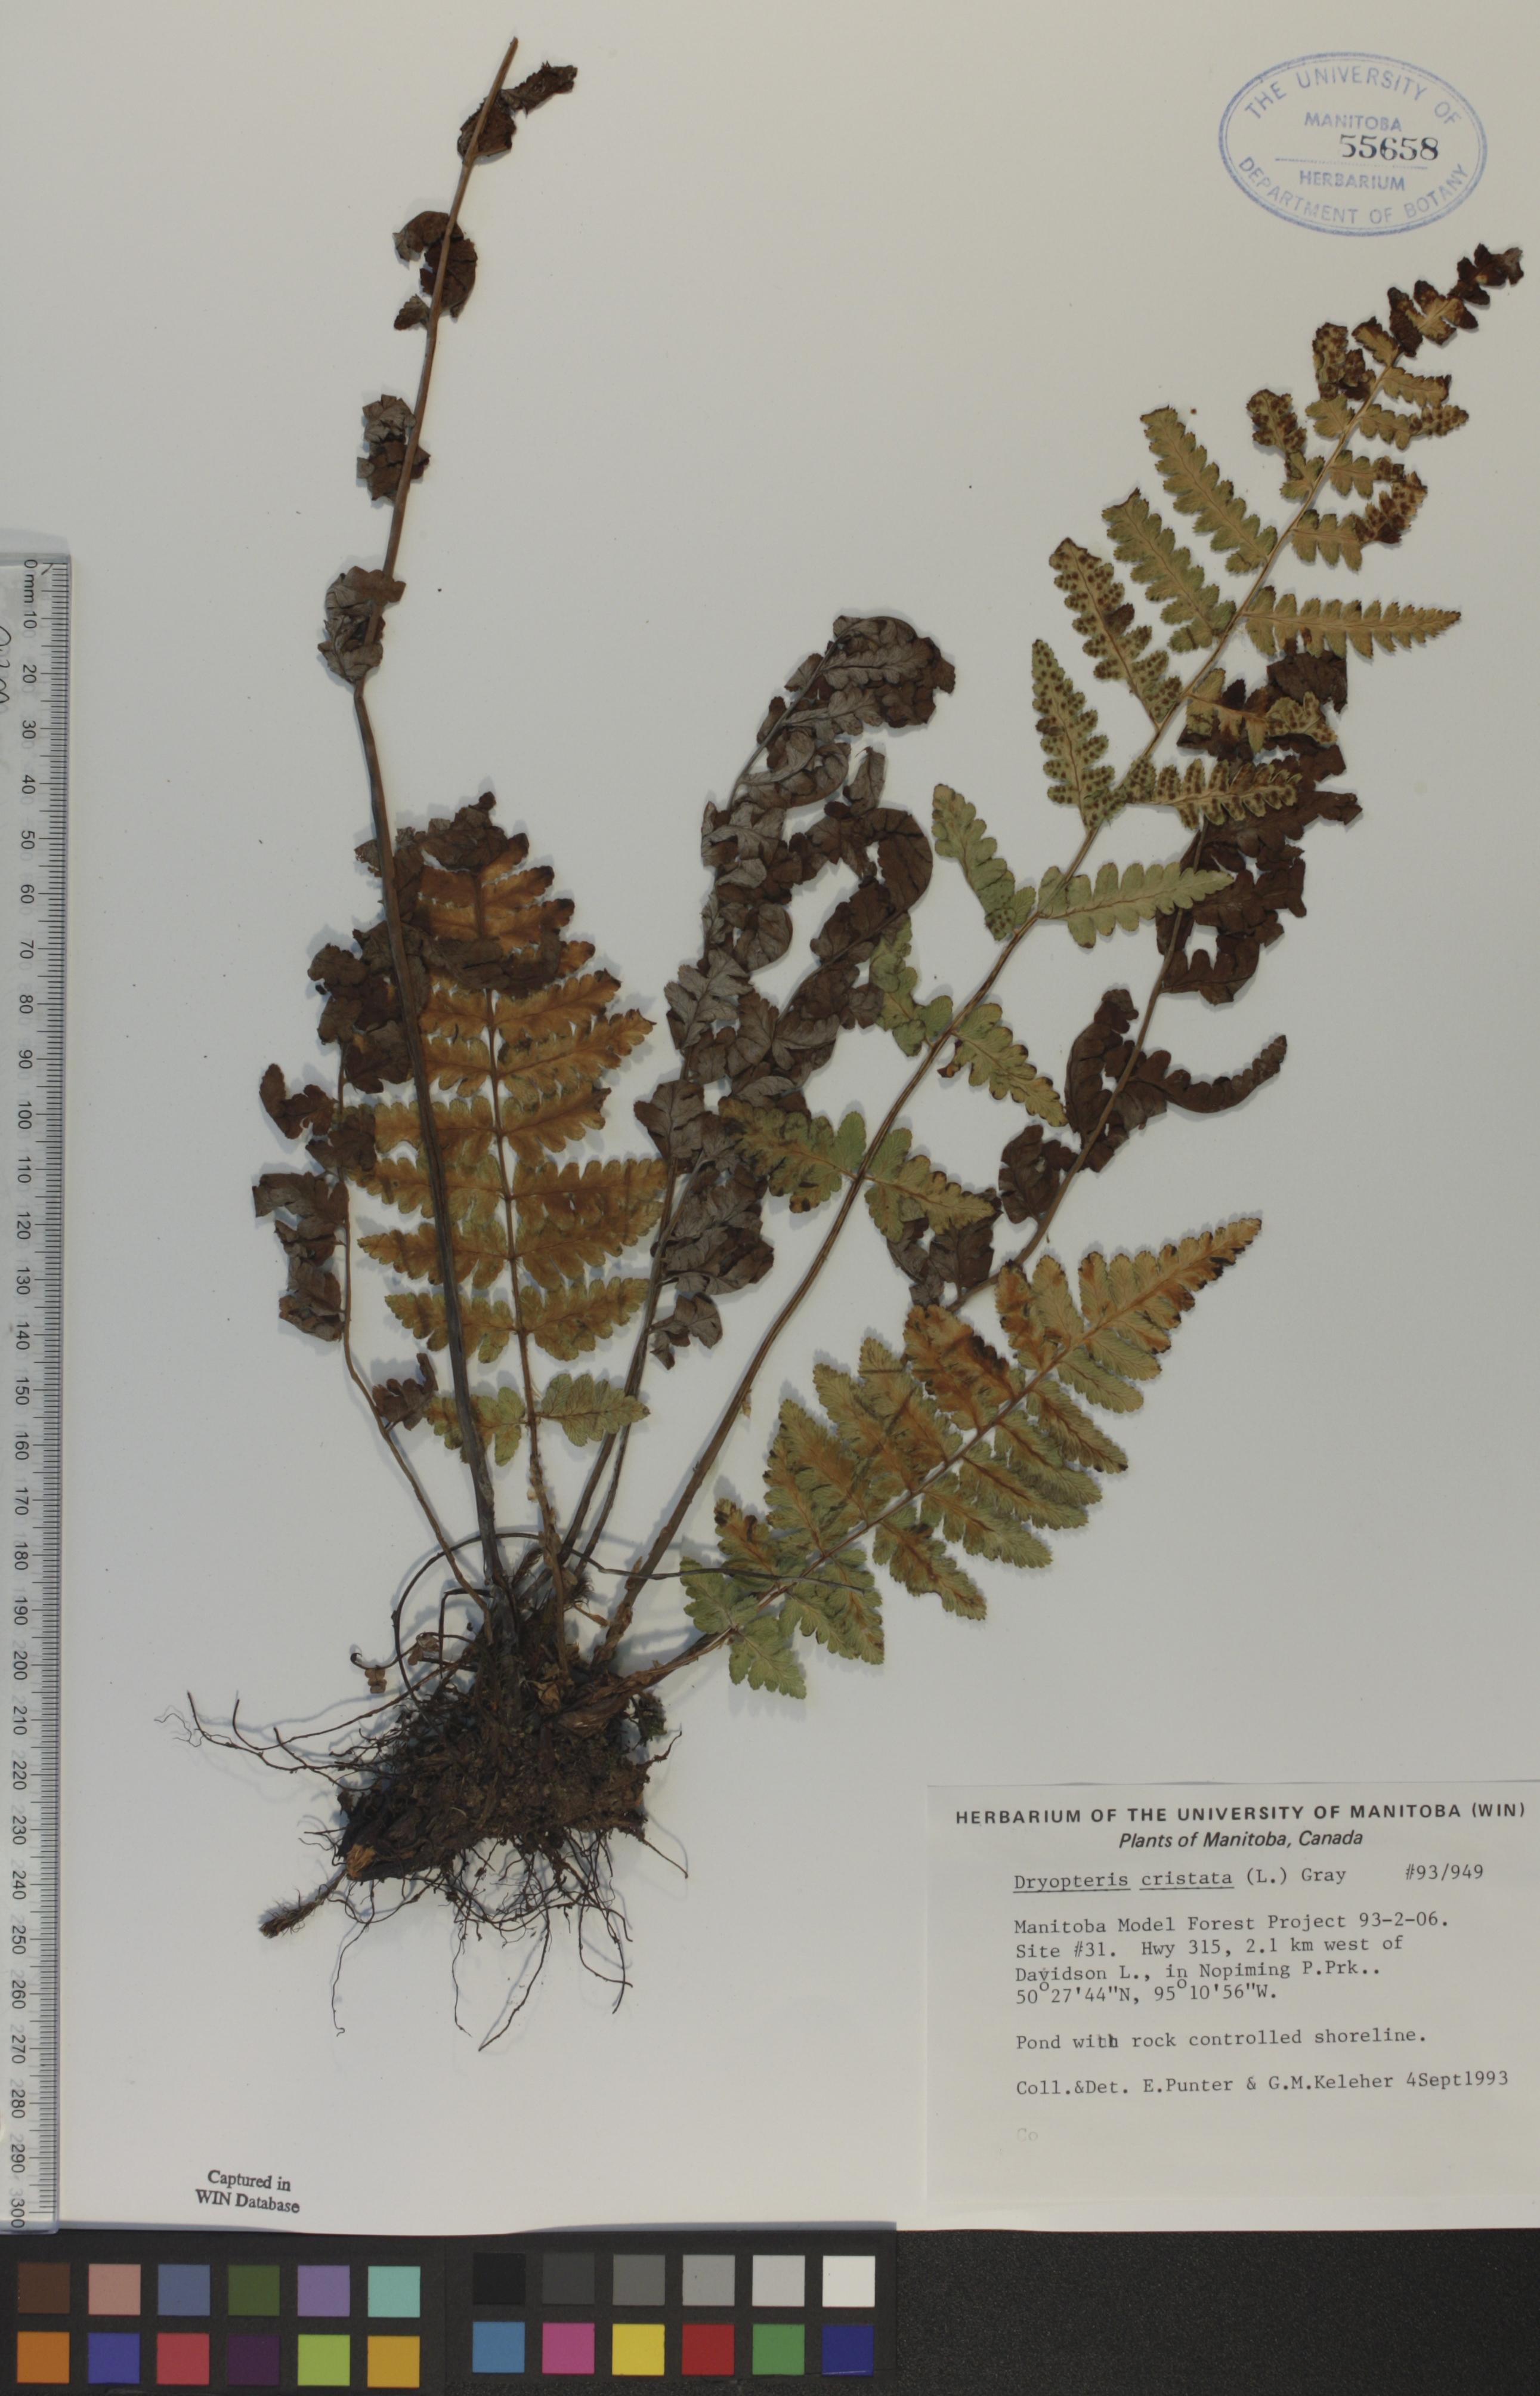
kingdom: Plantae
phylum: Tracheophyta
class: Polypodiopsida
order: Polypodiales
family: Dryopteridaceae
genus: Dryopteris
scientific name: Dryopteris cristata
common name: Crested wood fern
